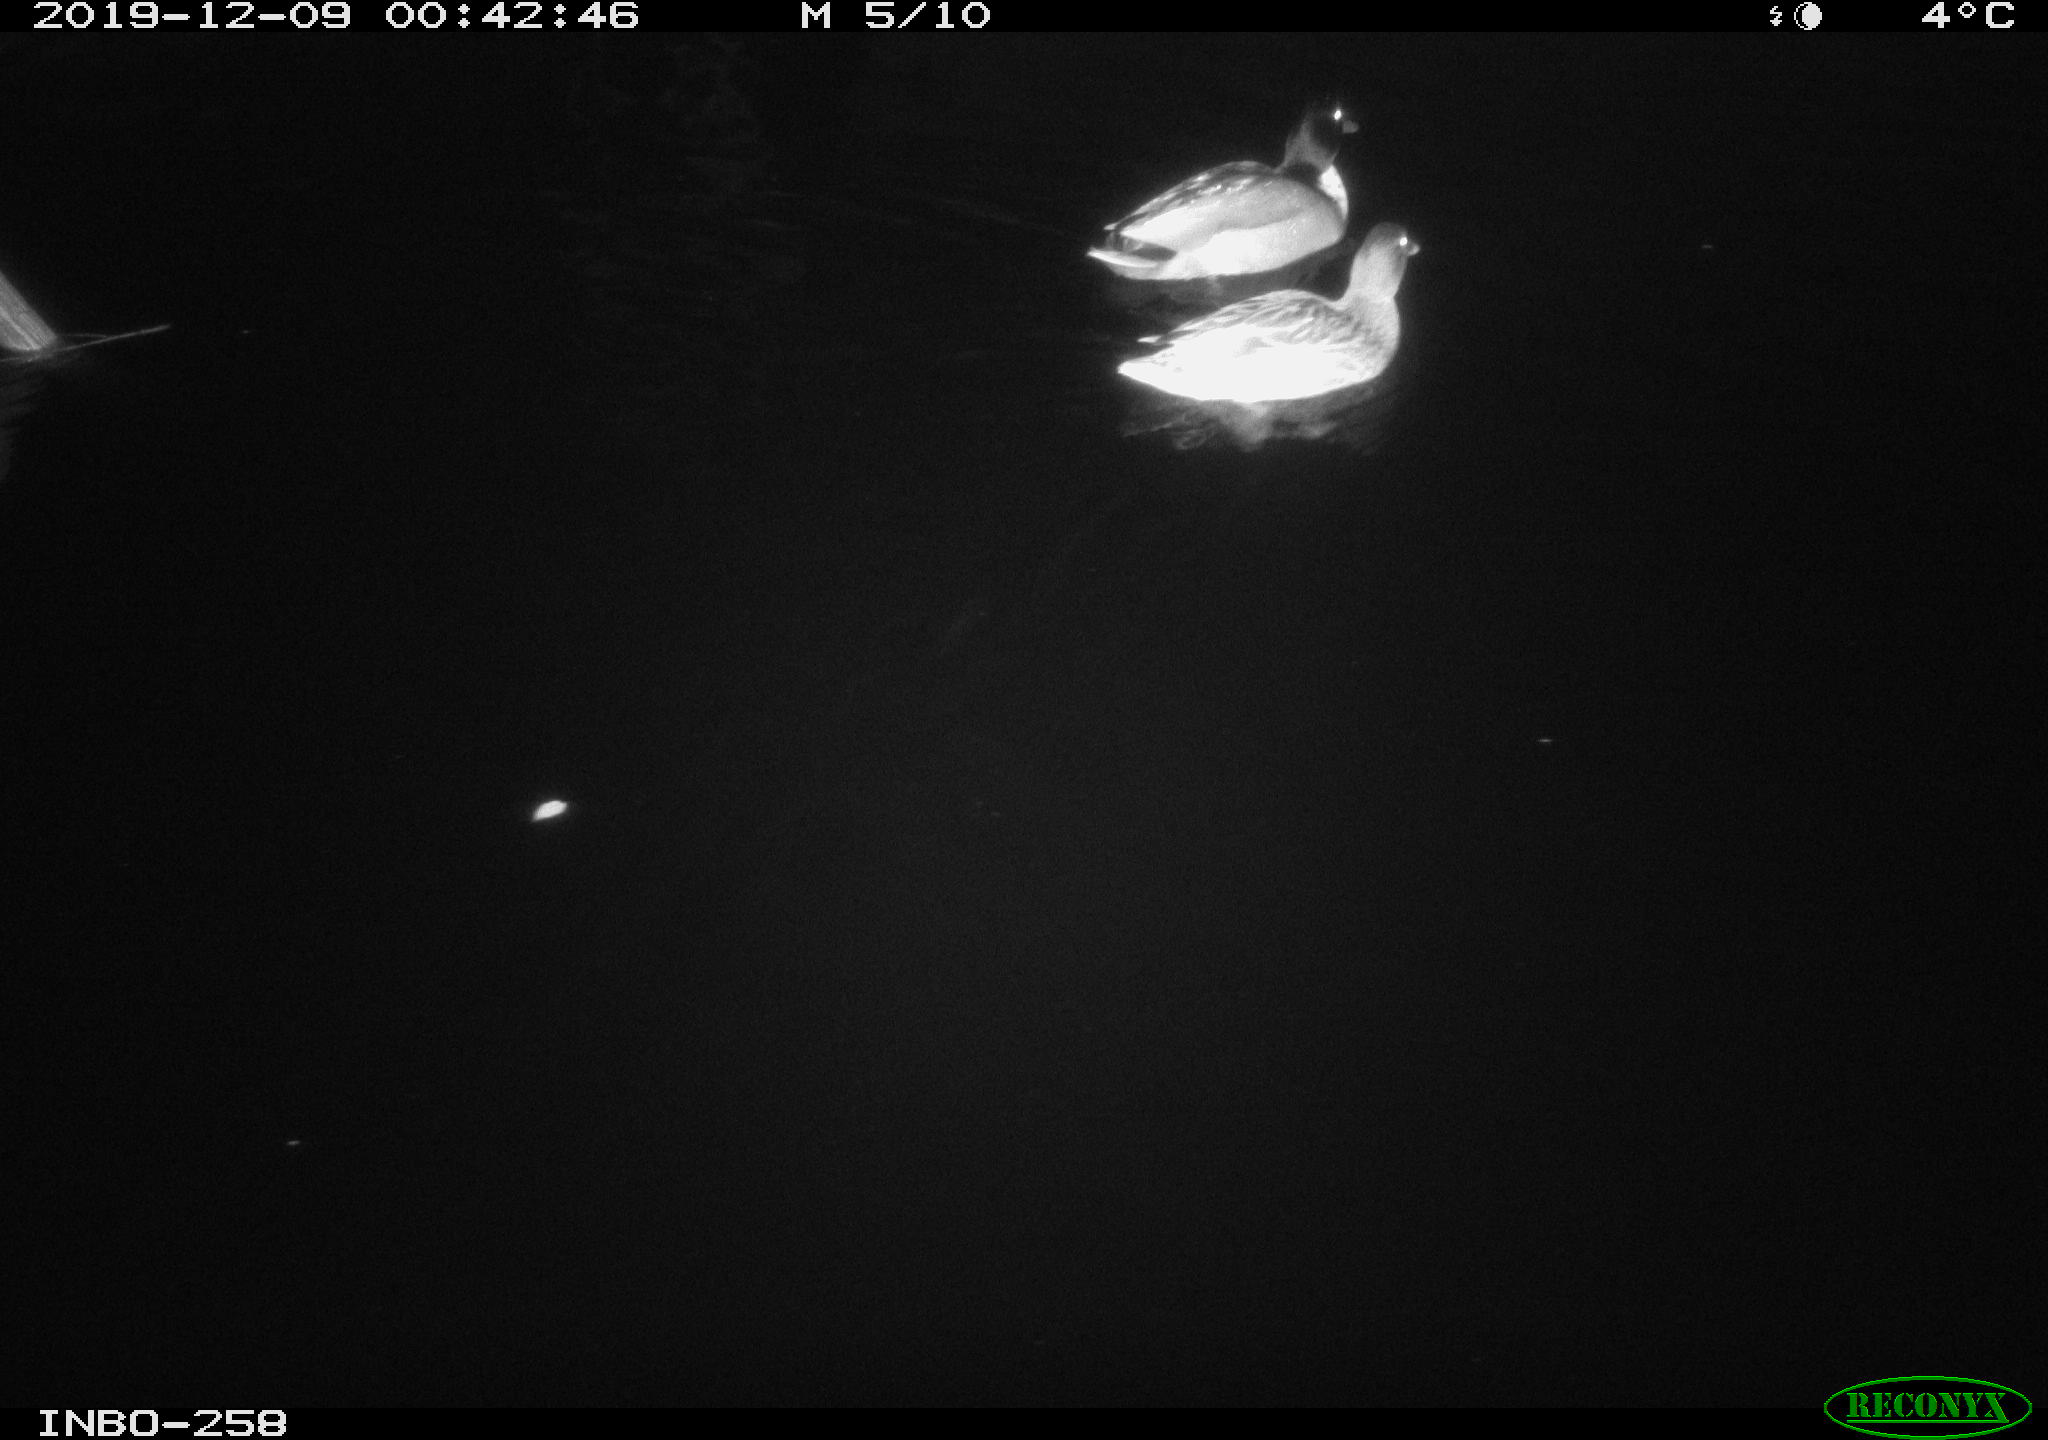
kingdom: Animalia
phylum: Chordata
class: Aves
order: Anseriformes
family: Anatidae
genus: Anas
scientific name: Anas platyrhynchos
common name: Mallard
